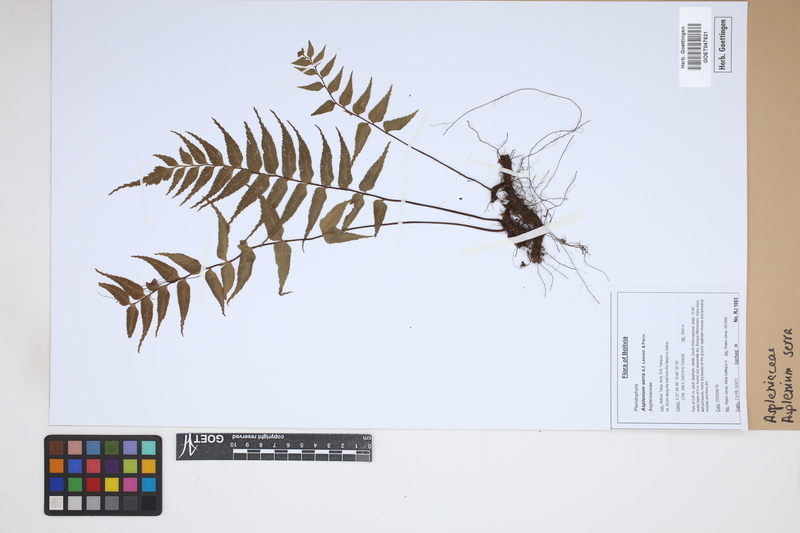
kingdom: Plantae
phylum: Tracheophyta
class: Polypodiopsida
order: Polypodiales
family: Aspleniaceae
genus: Asplenium
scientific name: Asplenium serra
